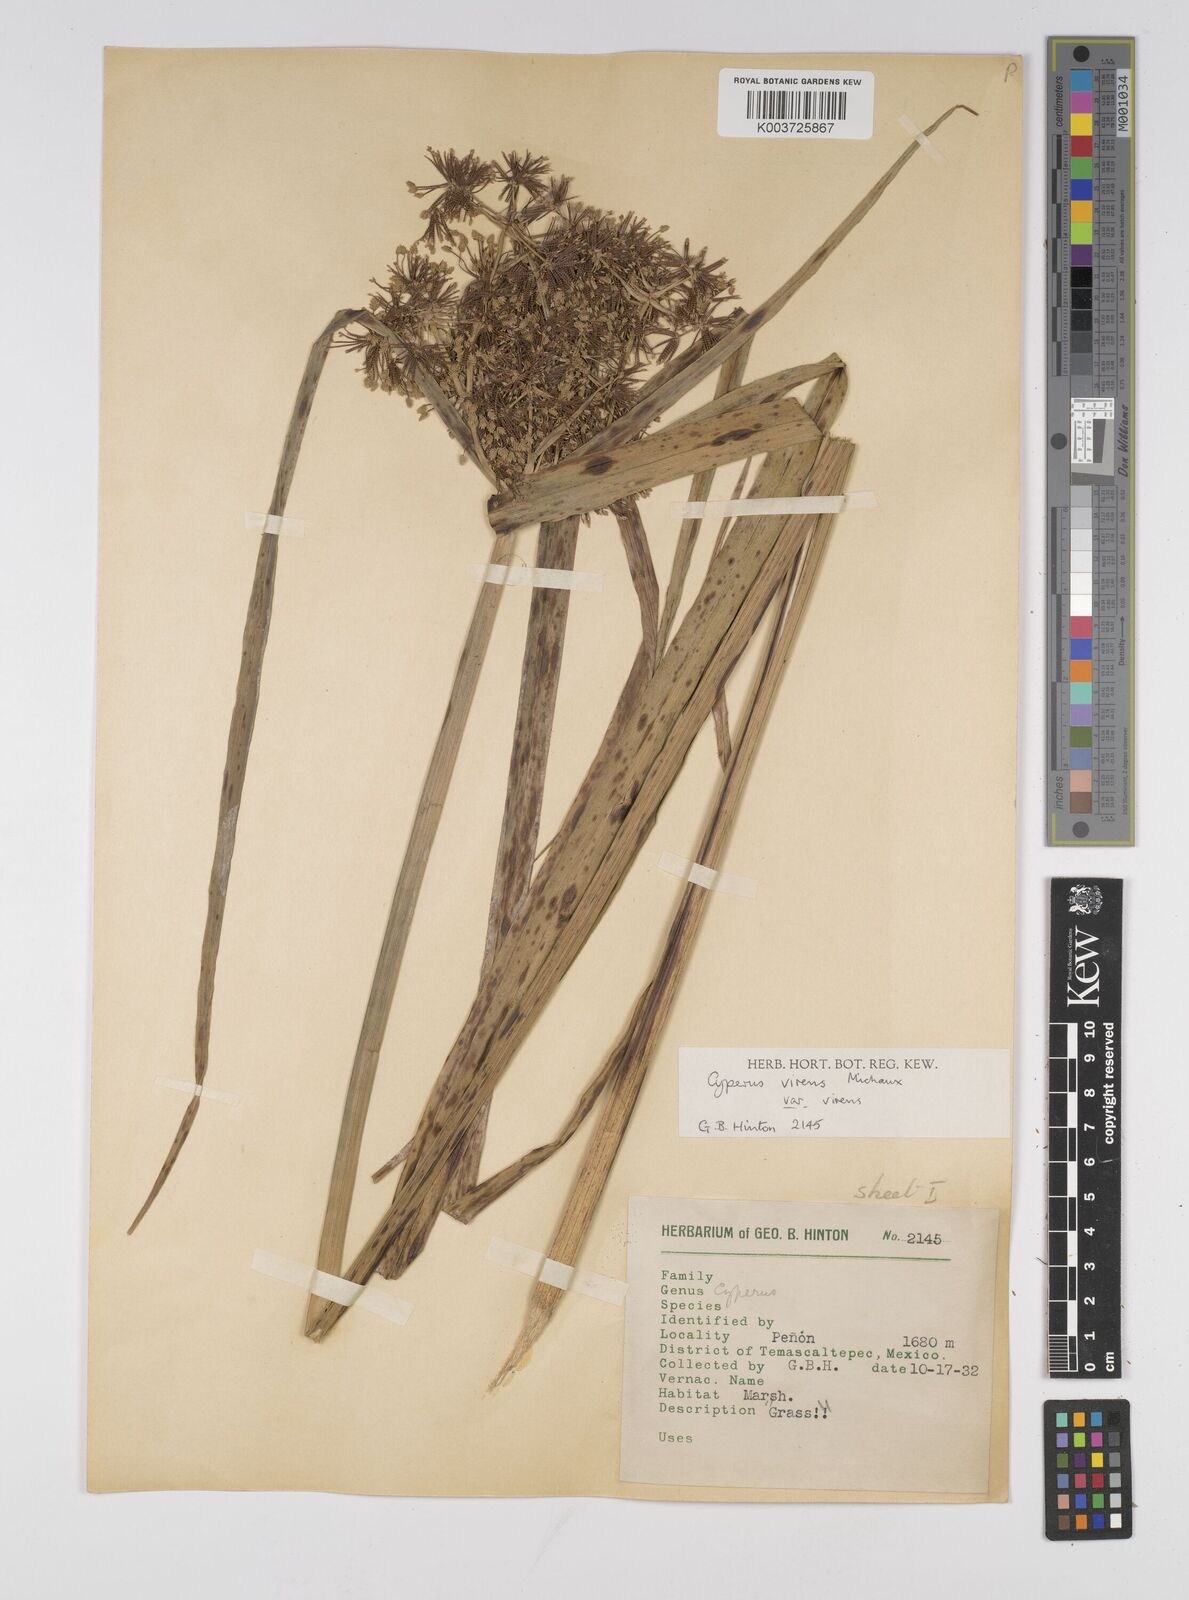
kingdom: Plantae
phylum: Tracheophyta
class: Liliopsida
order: Poales
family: Cyperaceae
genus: Cyperus
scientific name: Cyperus virens
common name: Green flatsedge
